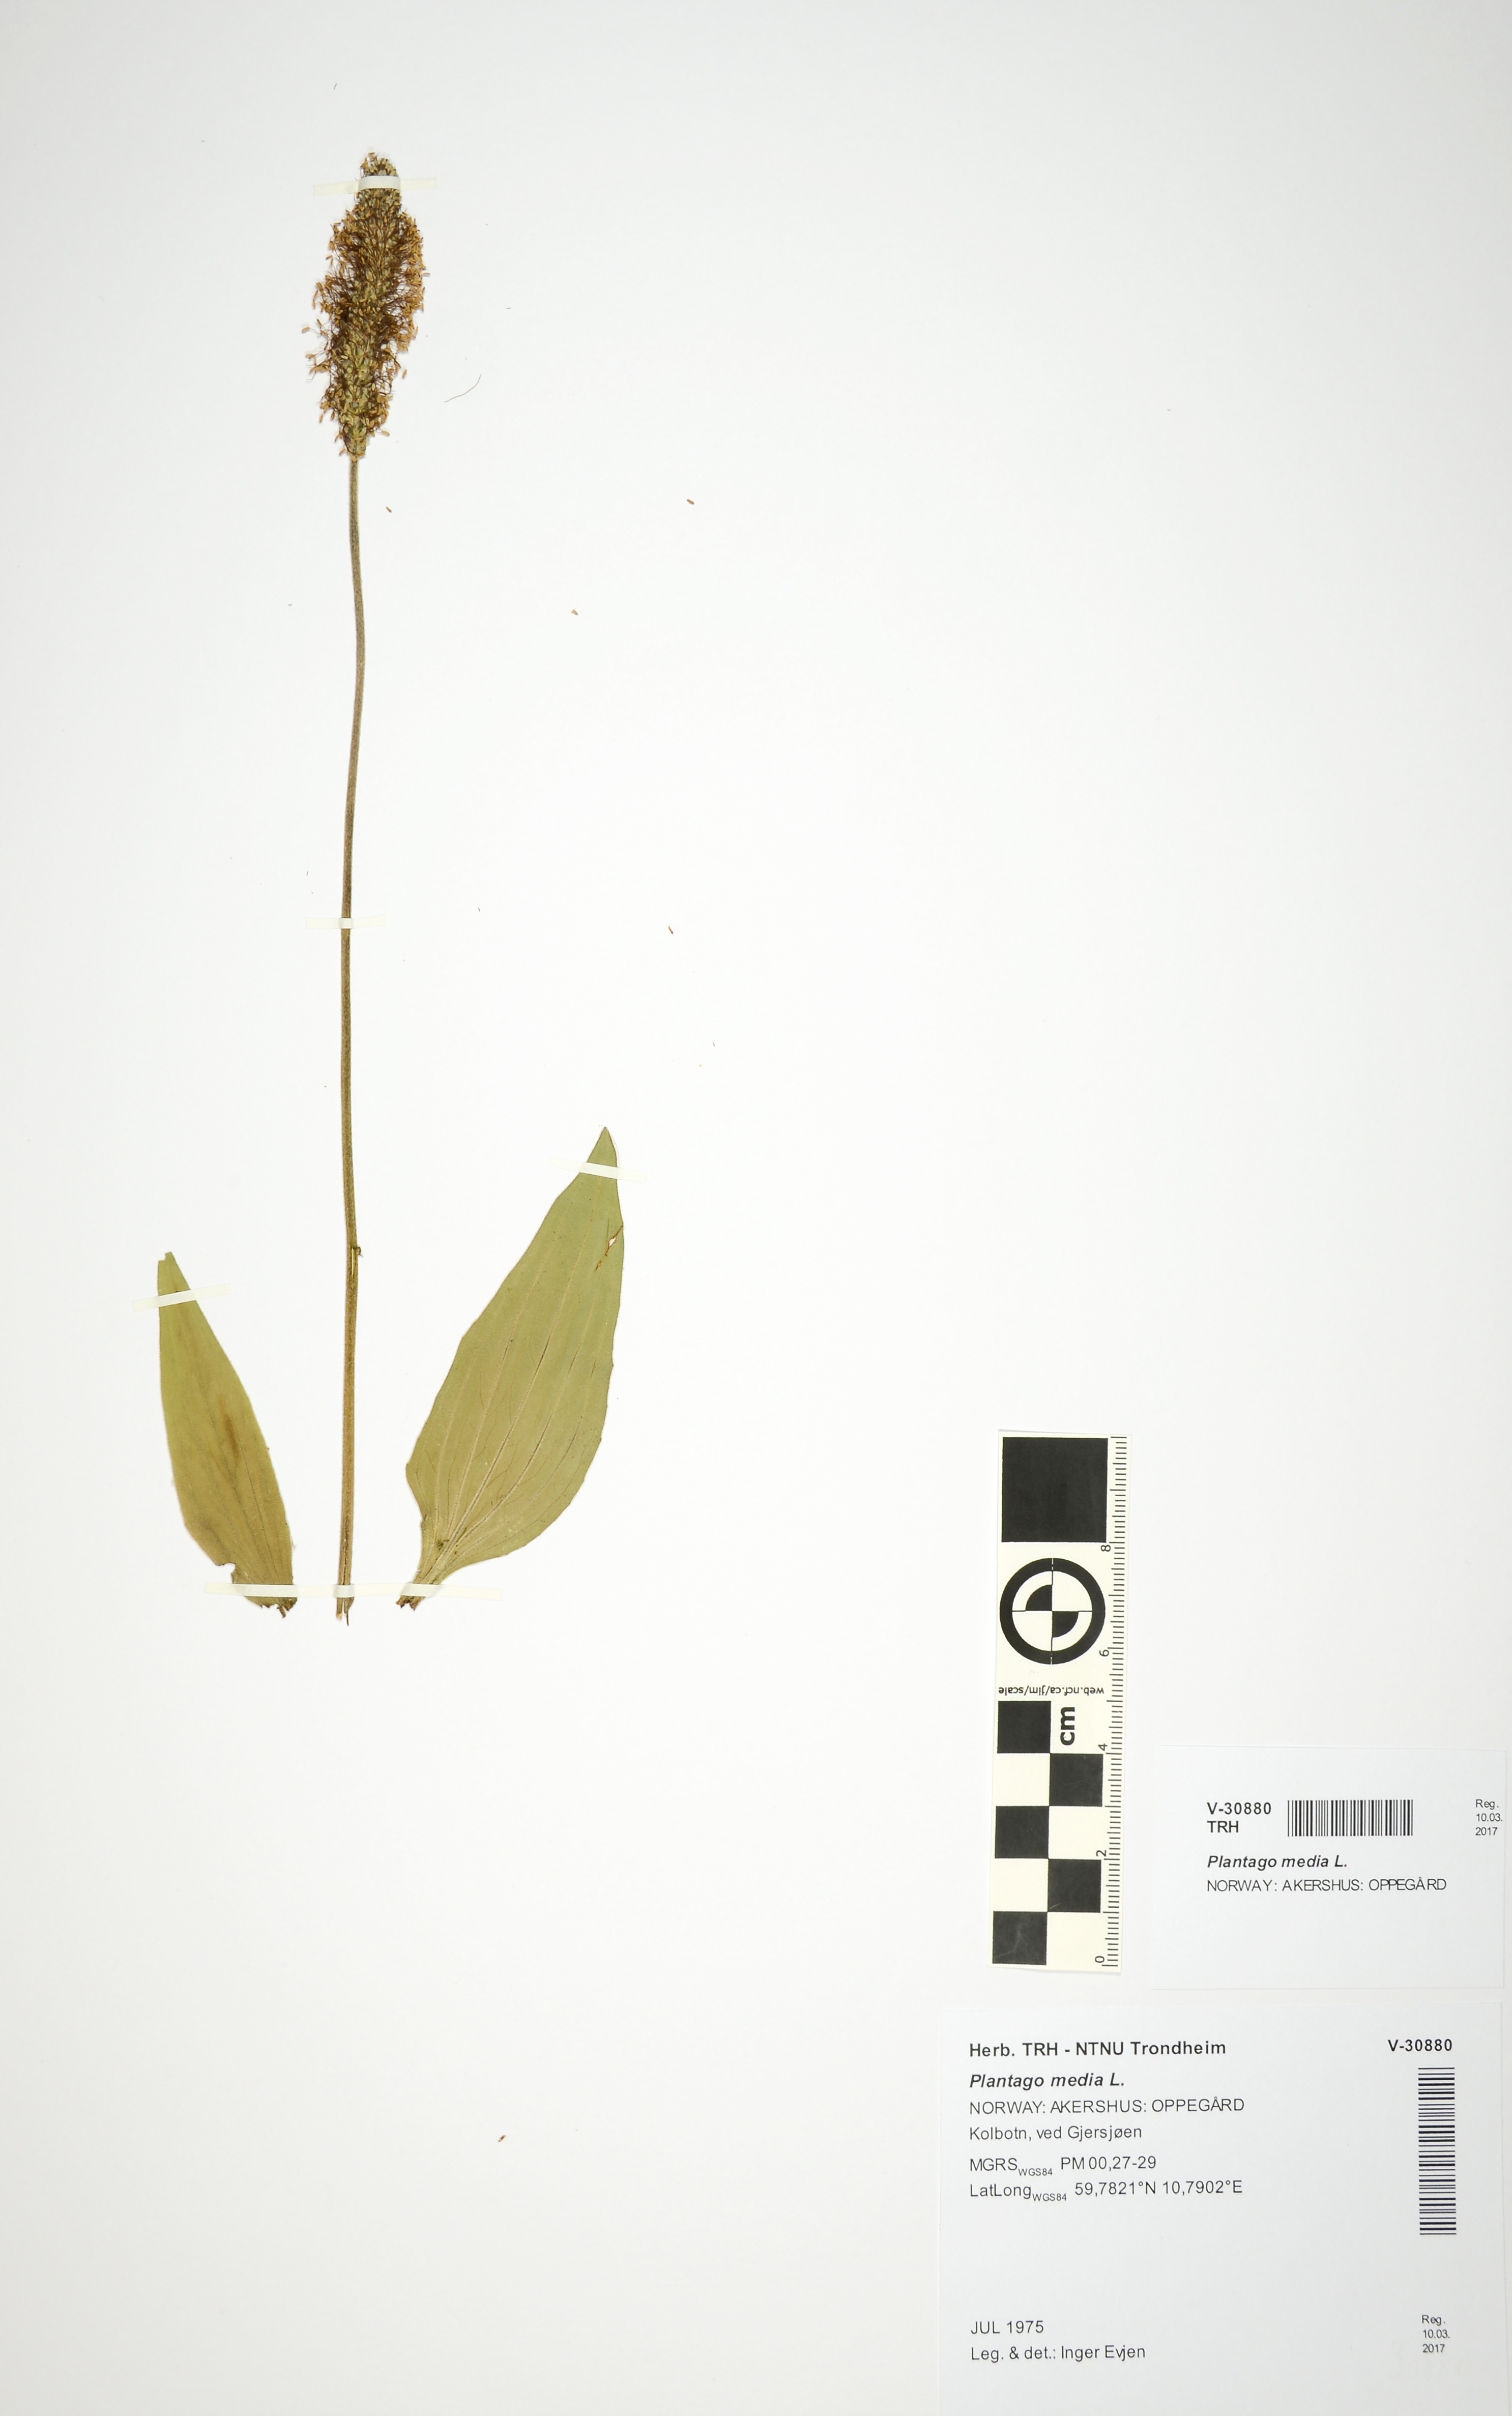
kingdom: Plantae
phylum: Tracheophyta
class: Magnoliopsida
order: Lamiales
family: Plantaginaceae
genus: Plantago
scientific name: Plantago media
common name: Hoary plantain
